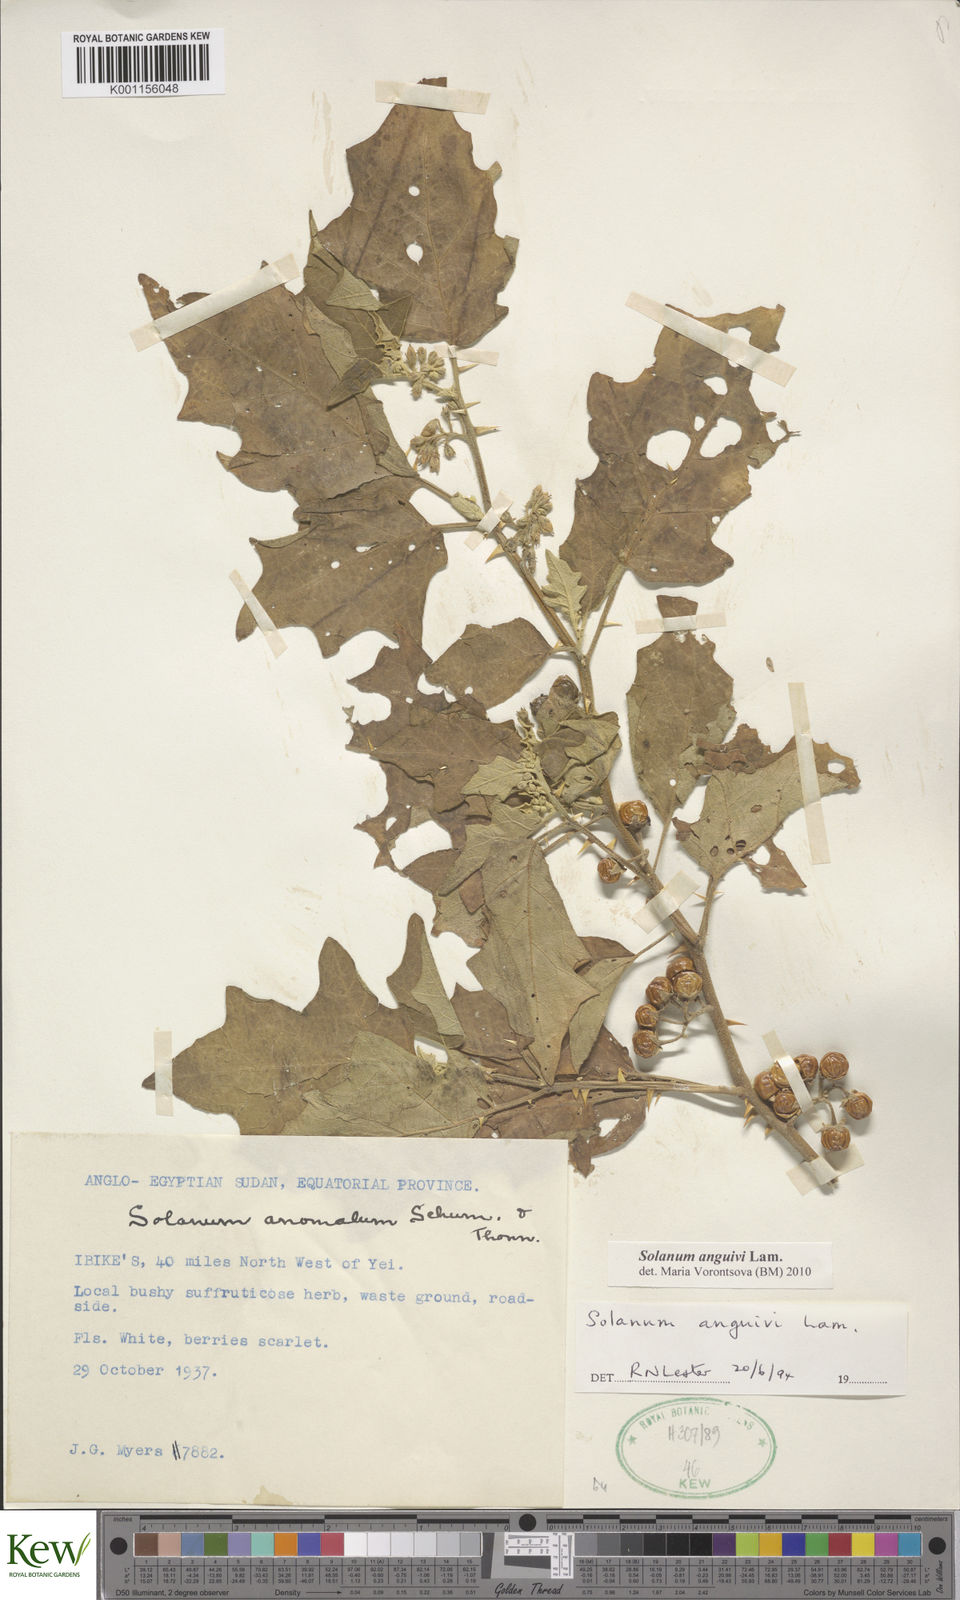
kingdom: Plantae
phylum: Tracheophyta
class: Magnoliopsida
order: Solanales
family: Solanaceae
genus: Solanum
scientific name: Solanum anguivi
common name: Forest bitterberry
